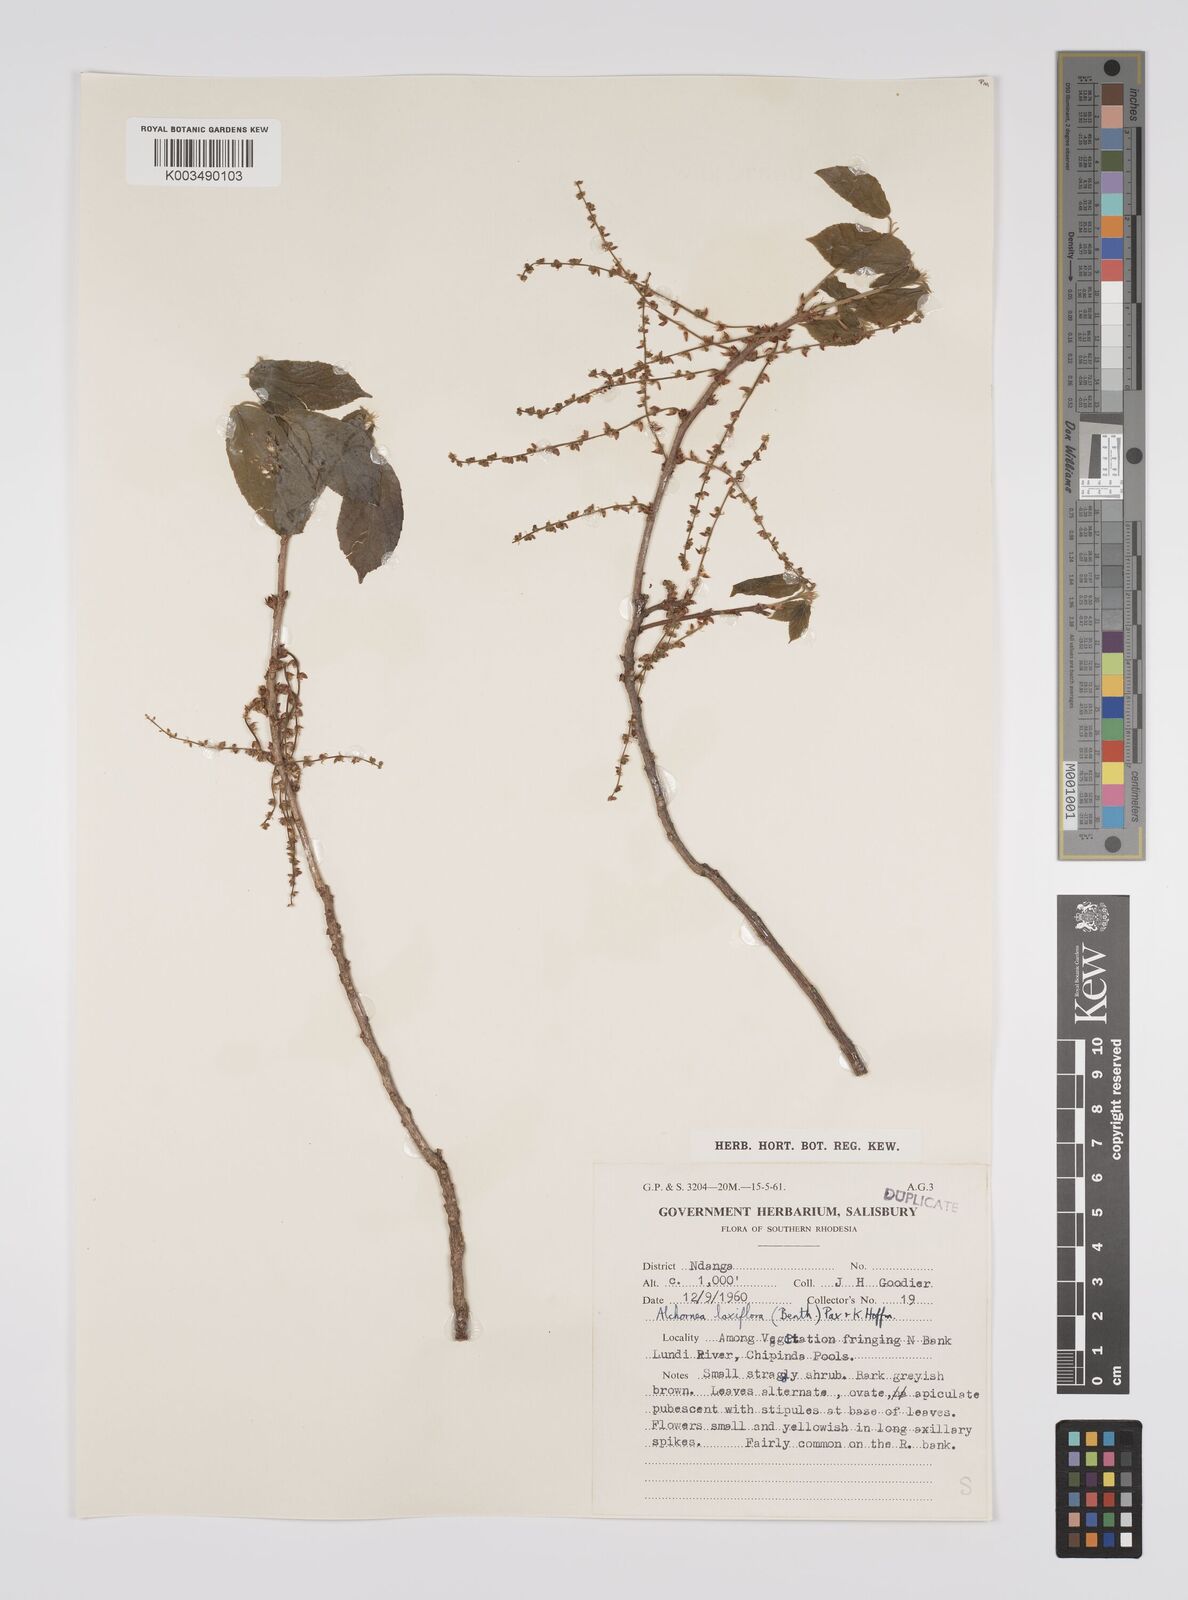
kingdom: Plantae
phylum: Tracheophyta
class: Magnoliopsida
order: Malpighiales
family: Euphorbiaceae
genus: Alchornea
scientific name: Alchornea laxiflora
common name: Lowveld bead-string
